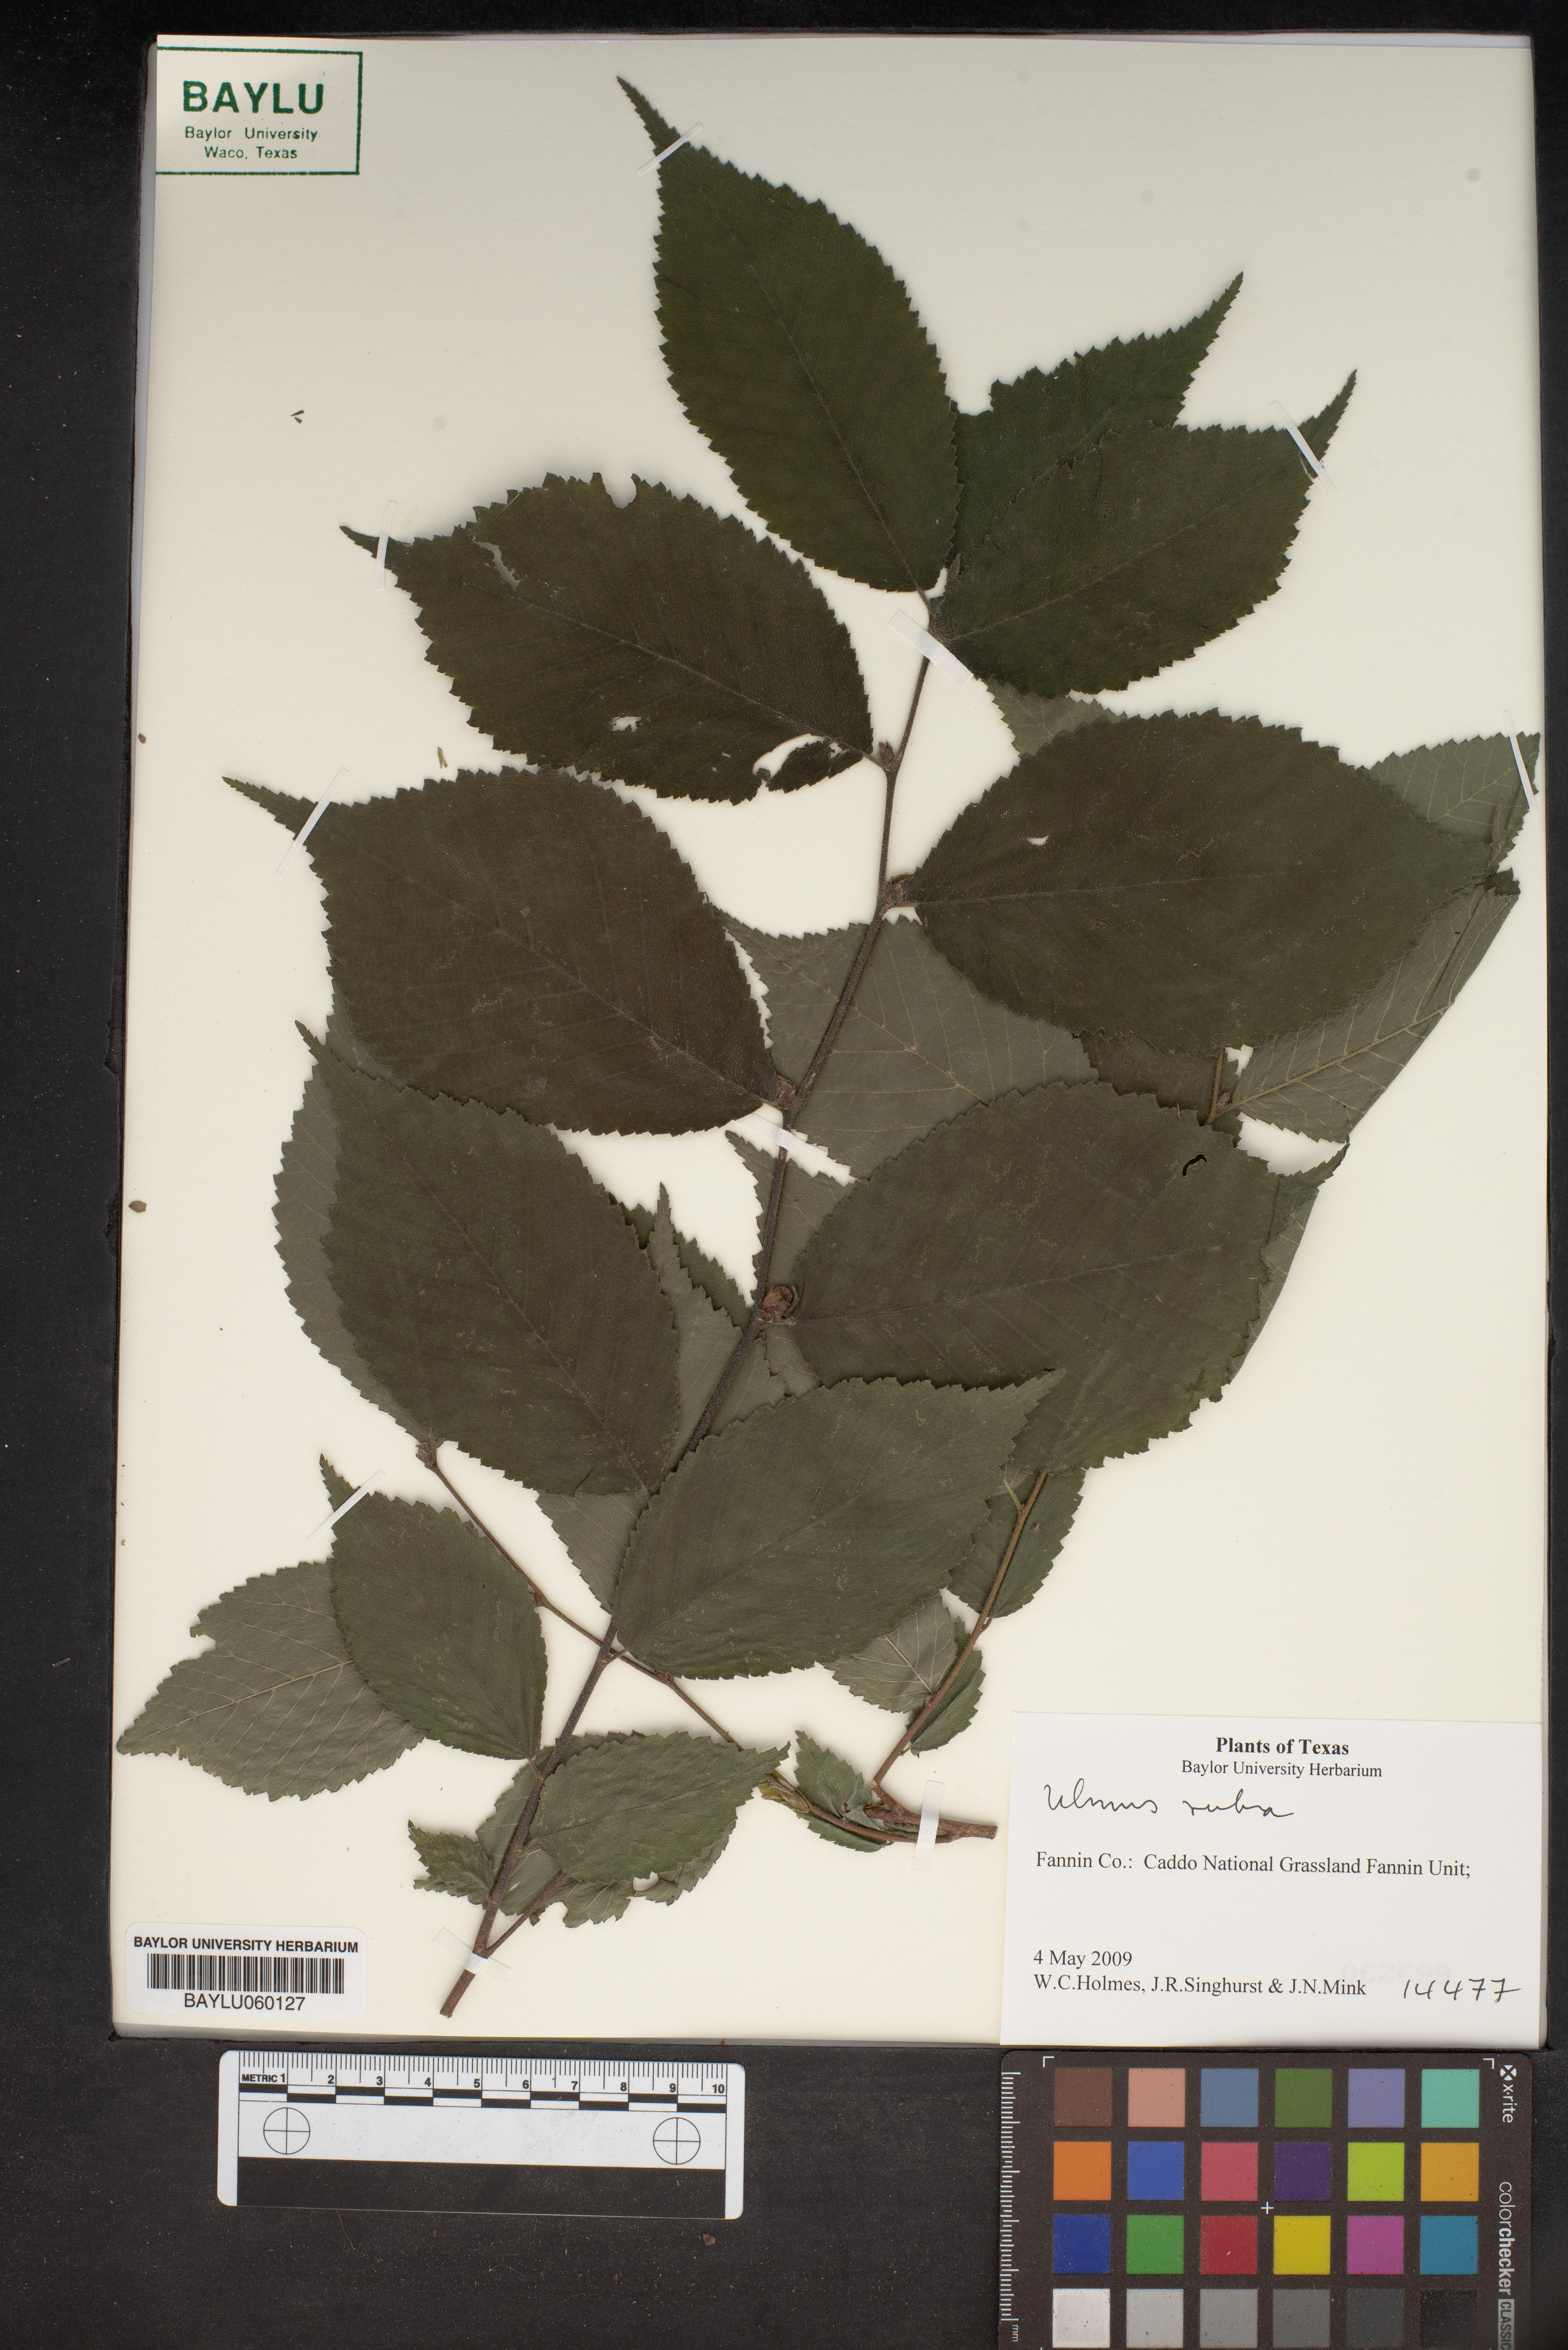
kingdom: Plantae
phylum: Tracheophyta
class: Magnoliopsida
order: Rosales
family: Ulmaceae
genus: Ulmus
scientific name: Ulmus rubra
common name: Slippery elm
